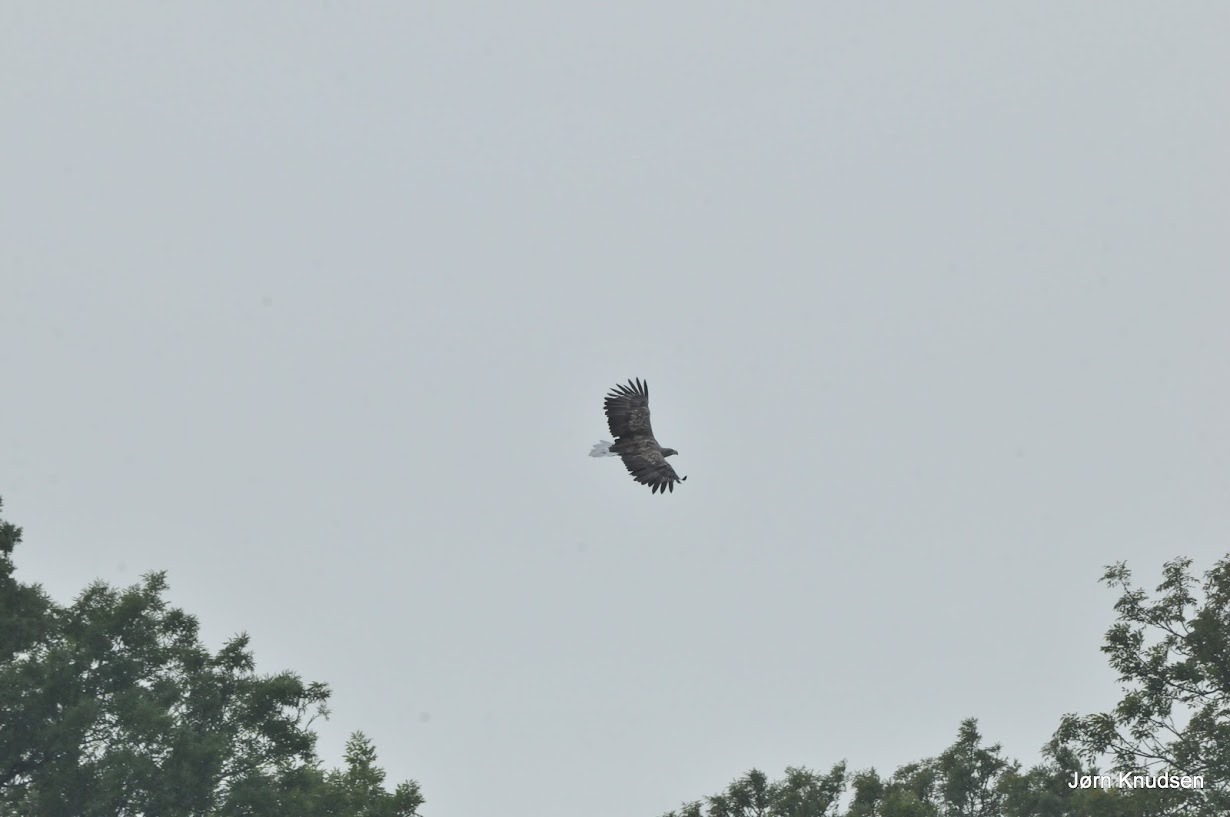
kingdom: Animalia
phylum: Chordata
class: Aves
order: Accipitriformes
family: Accipitridae
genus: Haliaeetus
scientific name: Haliaeetus albicilla
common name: Havørn
